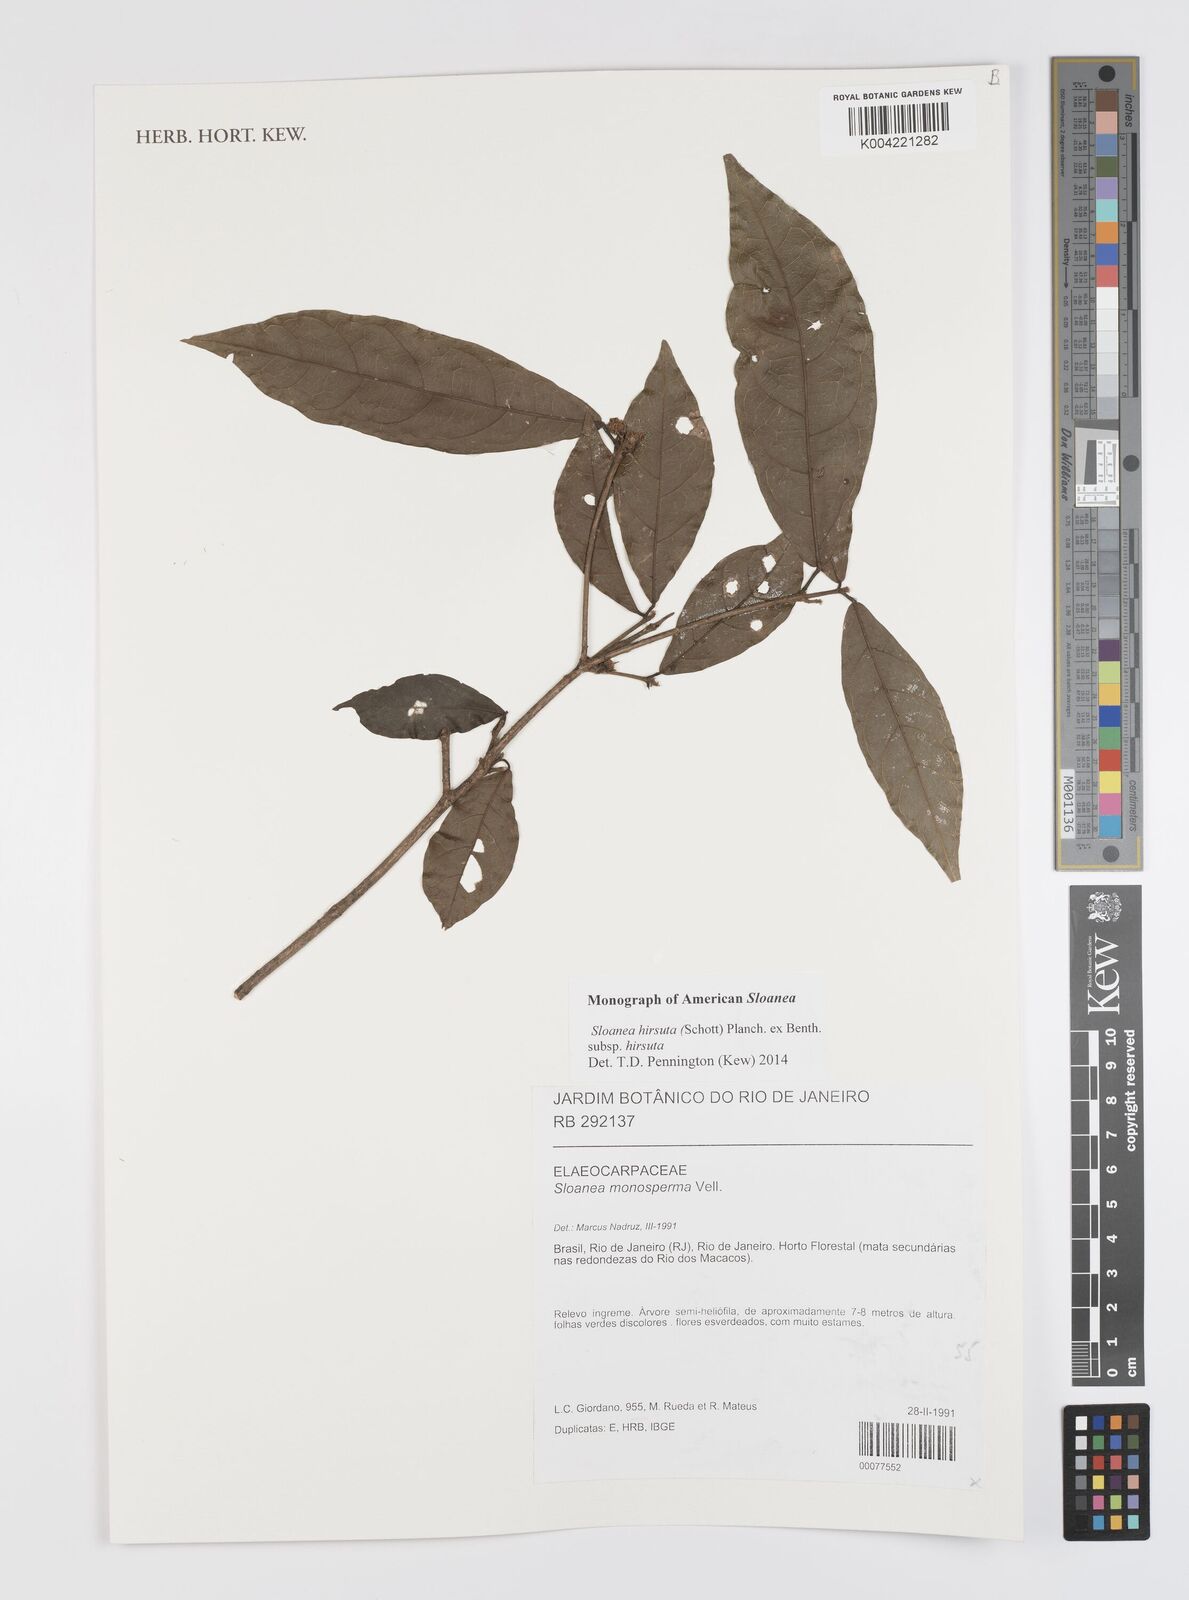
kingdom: Plantae
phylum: Tracheophyta
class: Magnoliopsida
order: Oxalidales
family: Elaeocarpaceae
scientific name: Elaeocarpaceae
